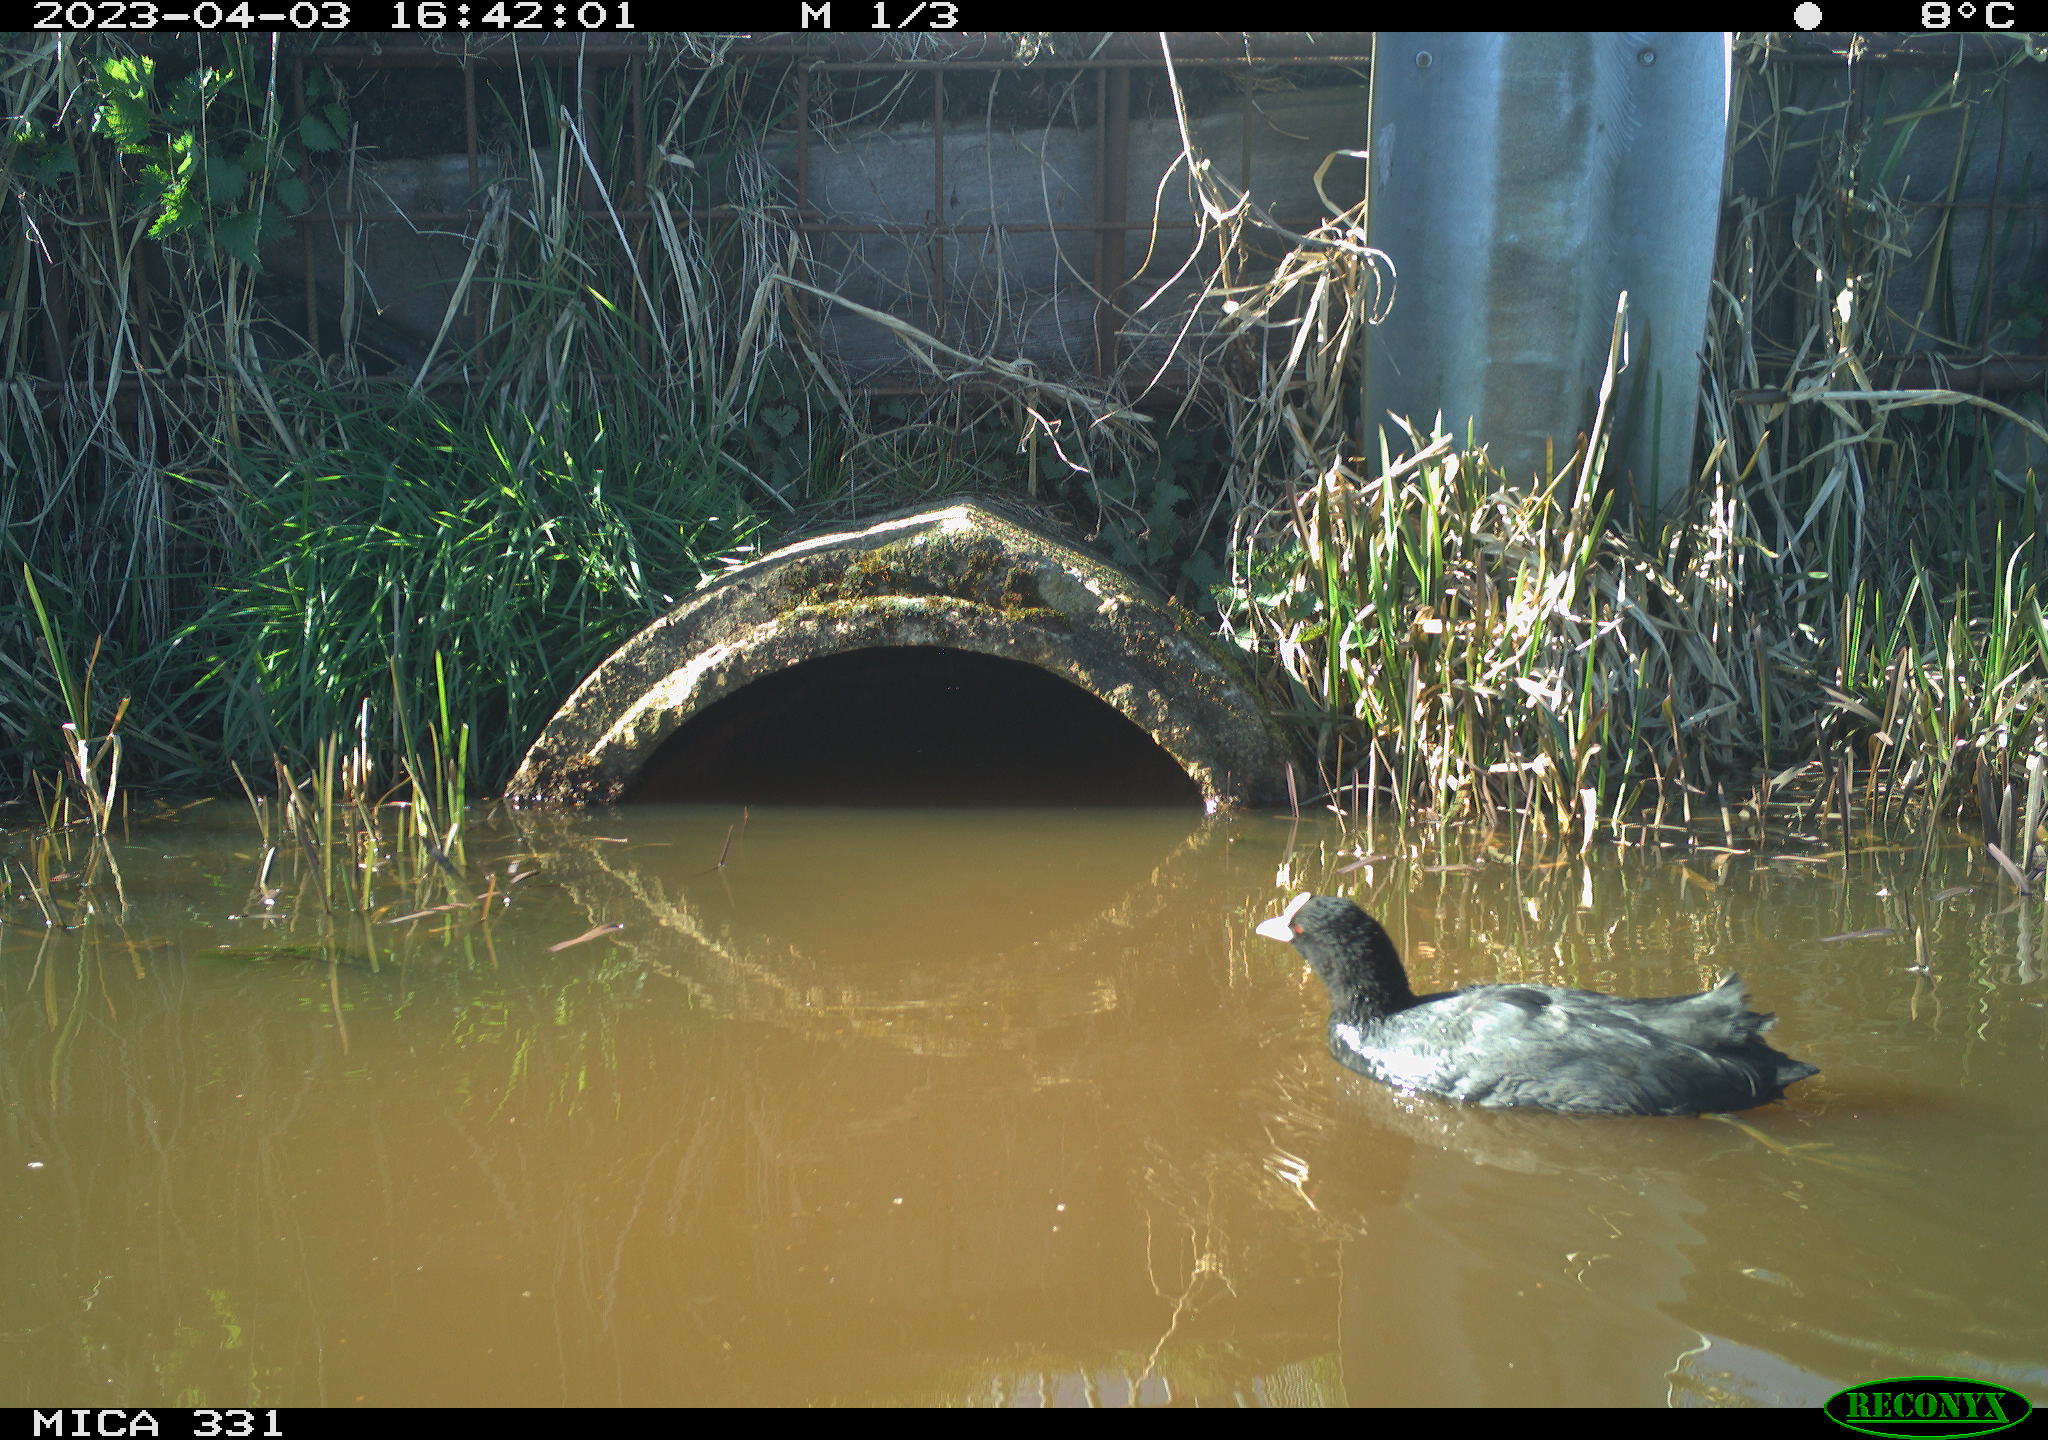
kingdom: Animalia
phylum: Chordata
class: Aves
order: Gruiformes
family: Rallidae
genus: Fulica
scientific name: Fulica atra
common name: Eurasian coot
